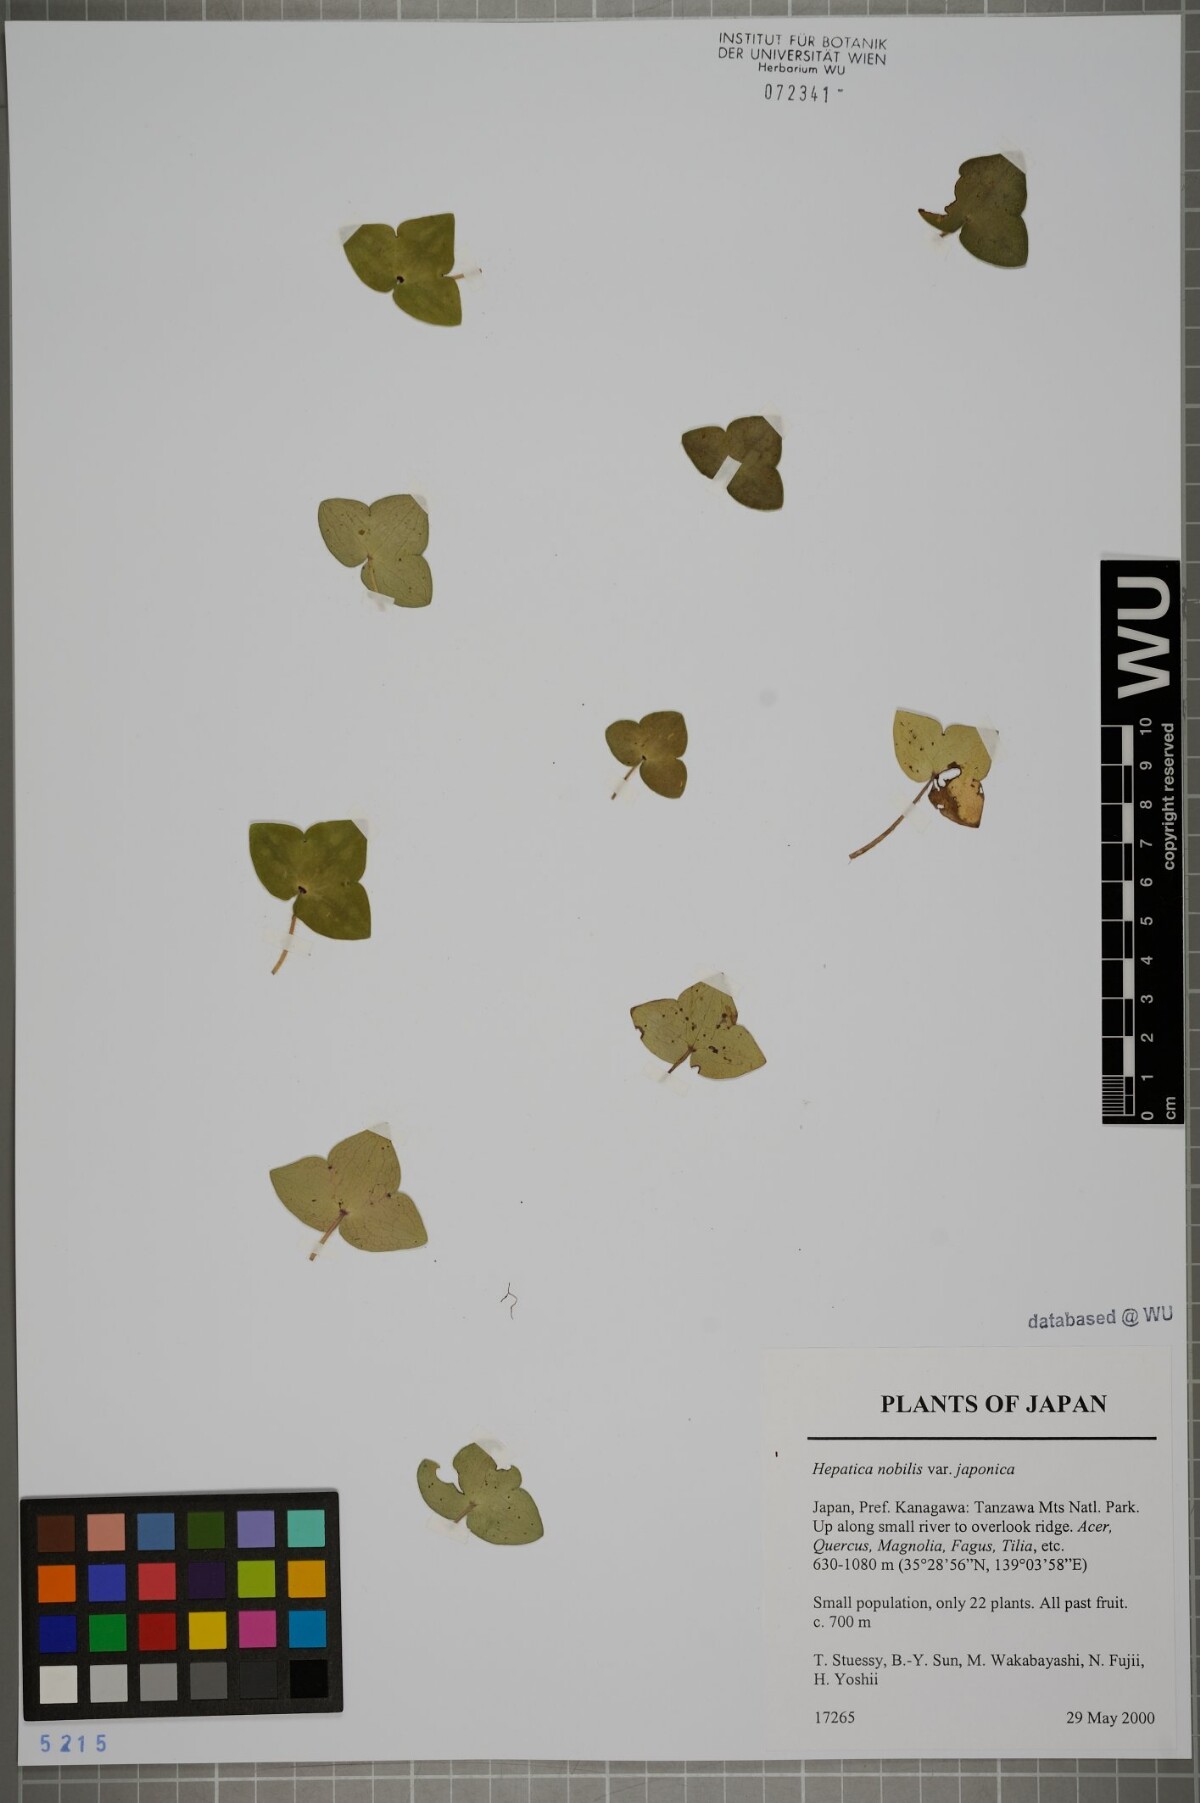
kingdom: Plantae
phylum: Tracheophyta
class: Magnoliopsida
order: Ranunculales
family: Ranunculaceae
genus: Hepatica
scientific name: Hepatica asiatica
